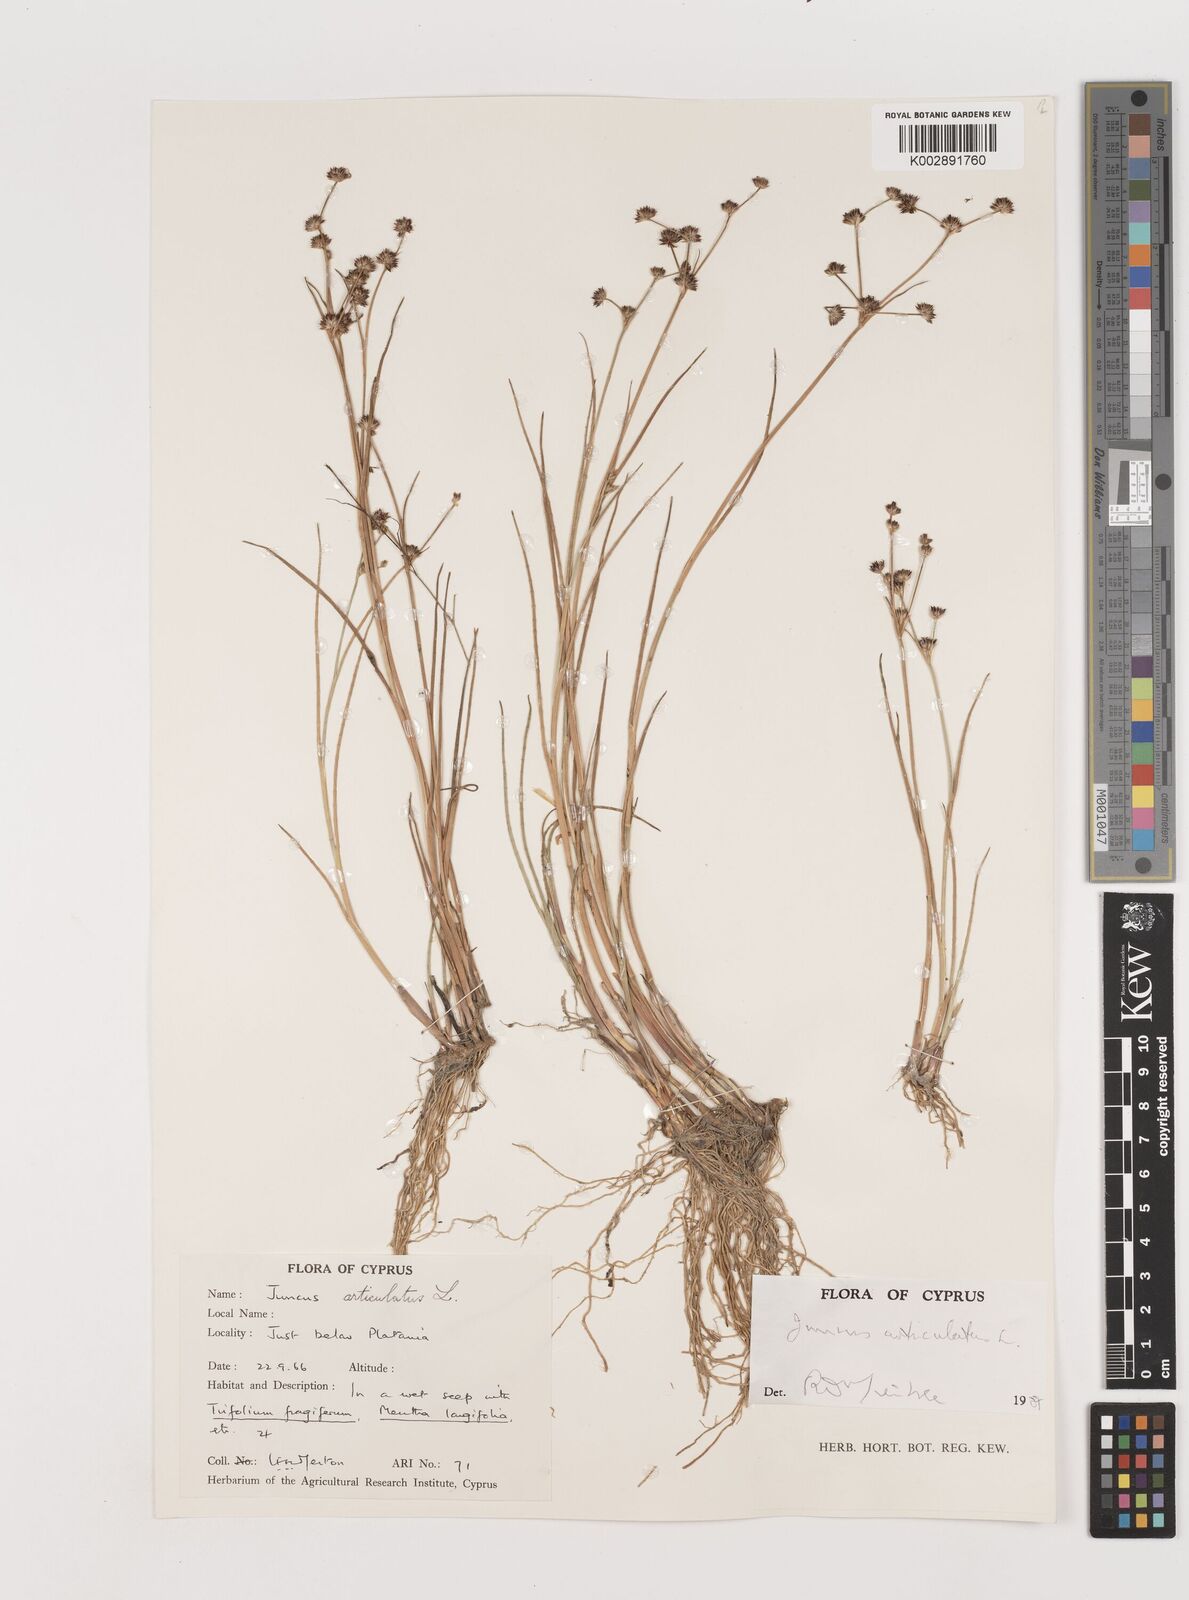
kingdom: Plantae
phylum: Tracheophyta
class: Liliopsida
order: Poales
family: Juncaceae
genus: Juncus
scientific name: Juncus articulatus
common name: Jointed rush
